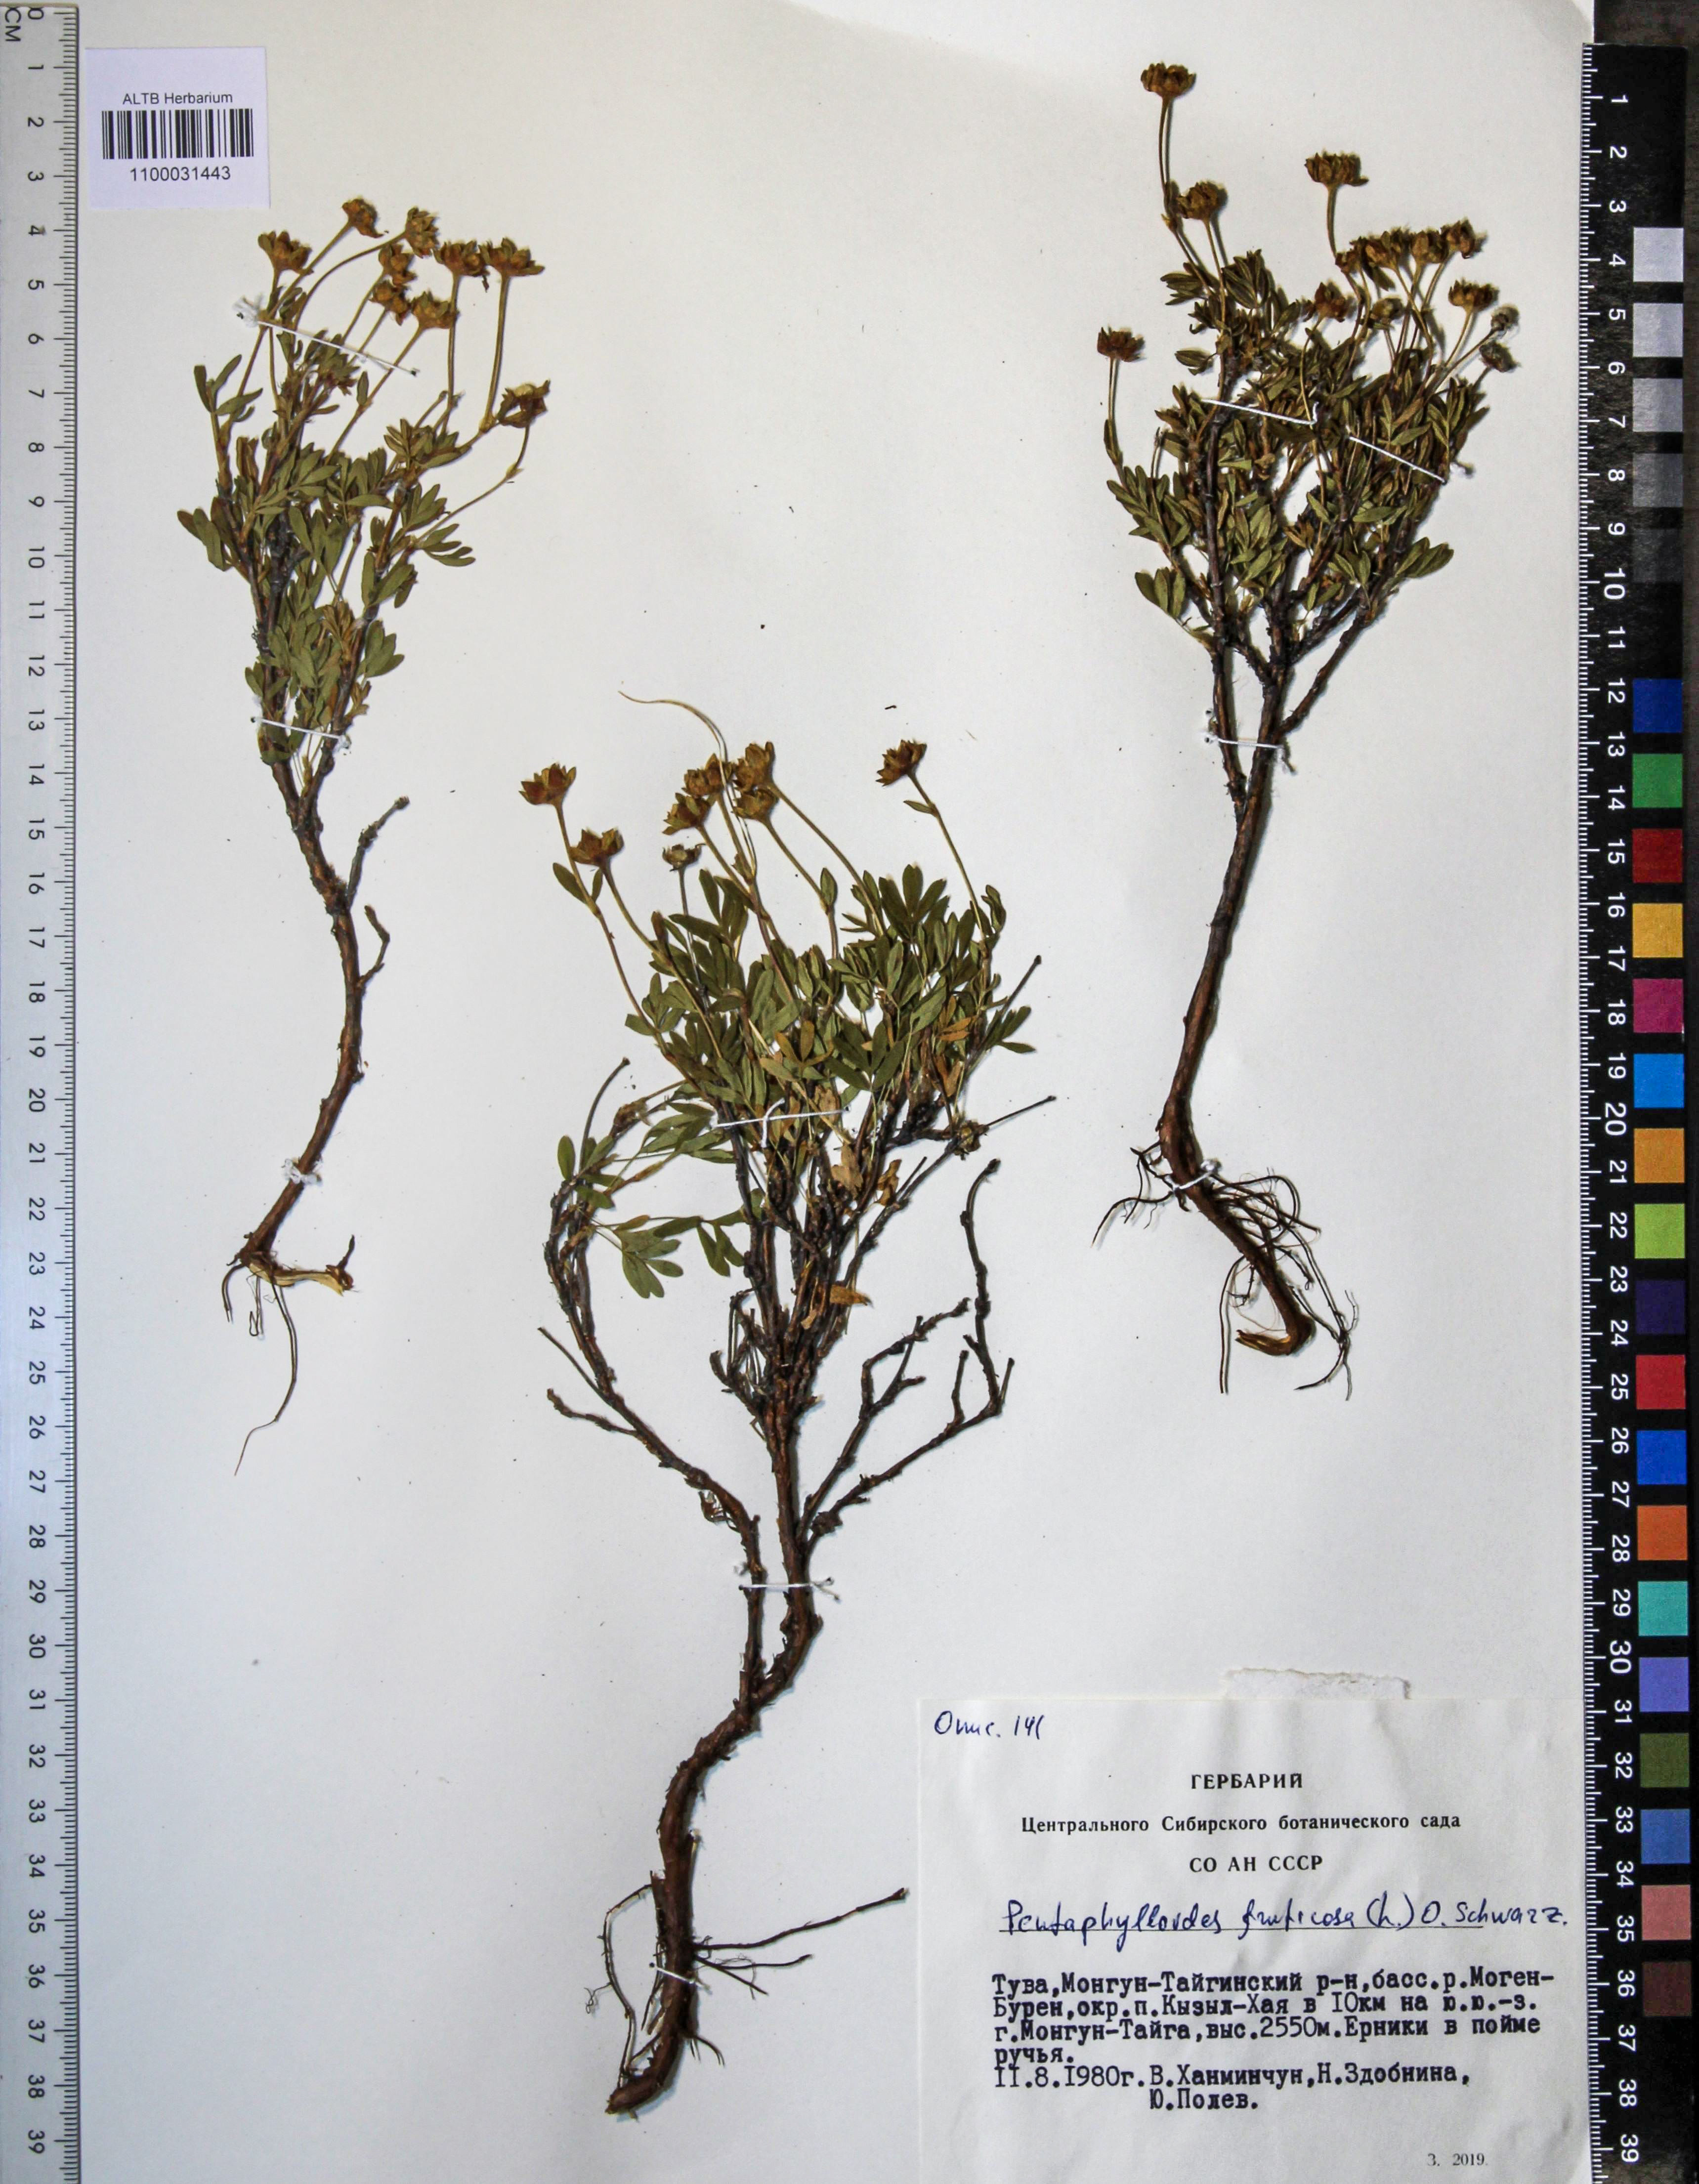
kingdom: Plantae
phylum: Tracheophyta
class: Magnoliopsida
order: Rosales
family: Rosaceae
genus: Dasiphora
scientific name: Dasiphora fruticosa
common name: Shrubby cinquefoil
